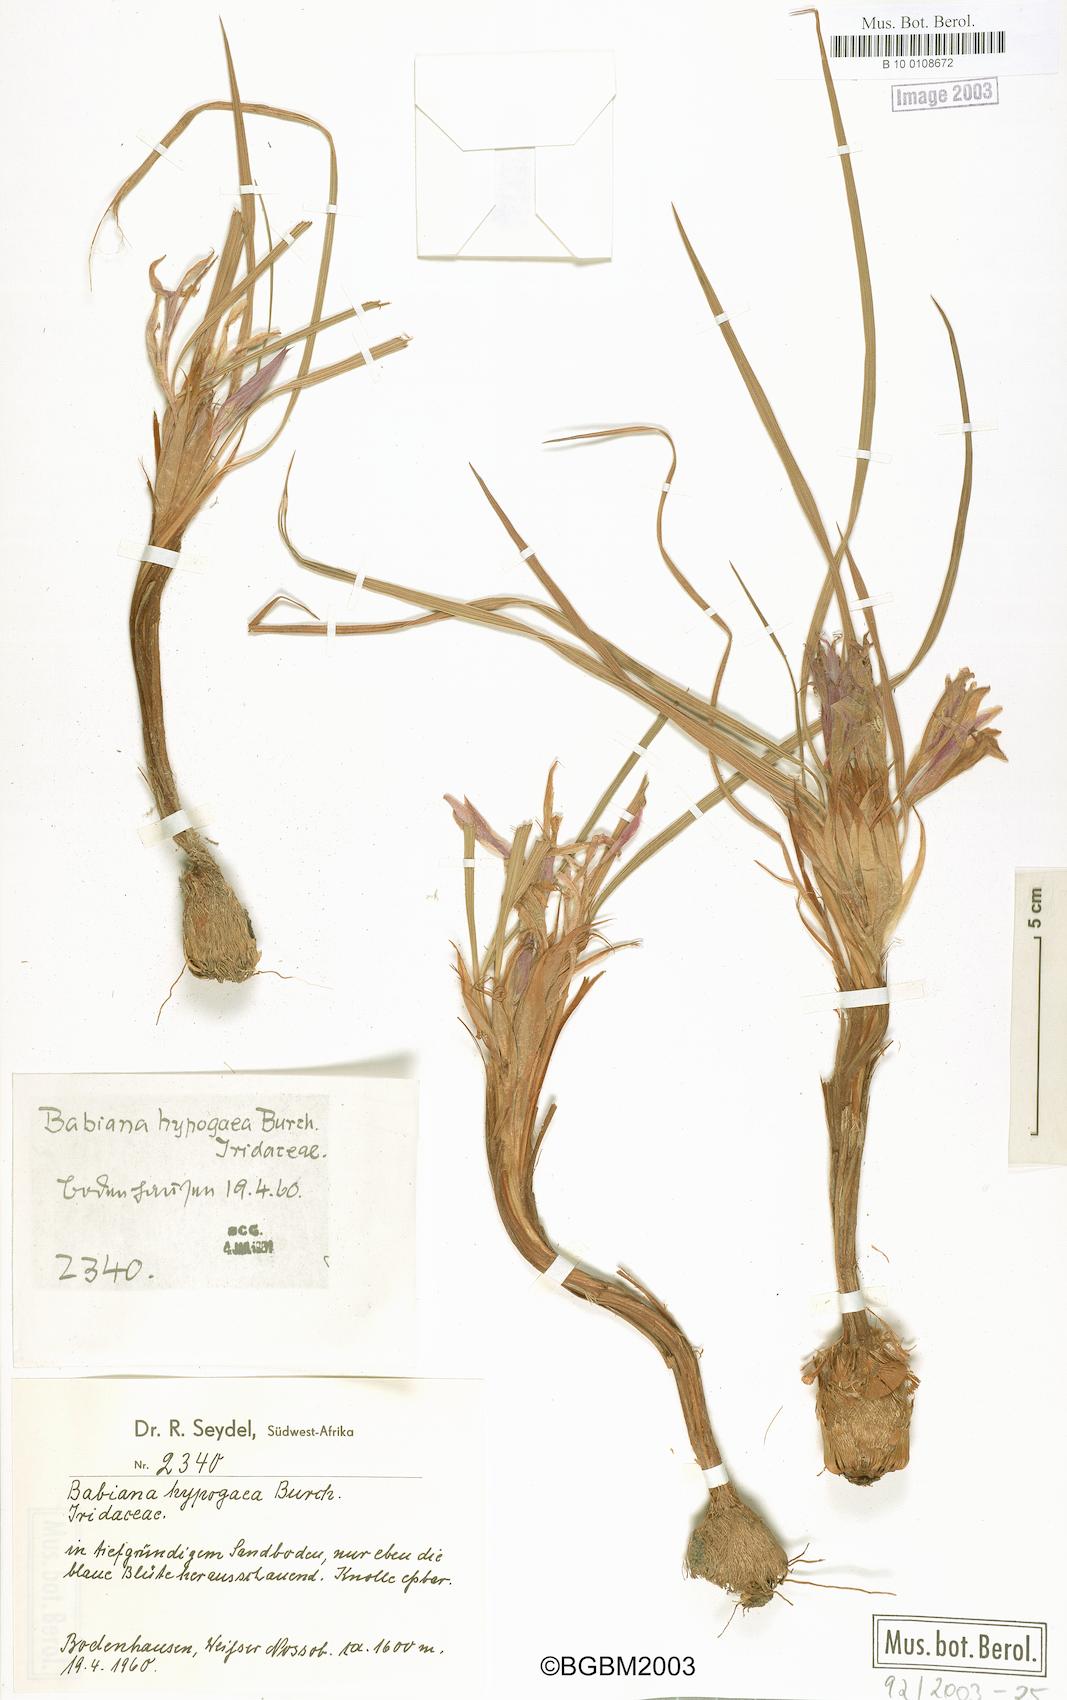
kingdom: Plantae
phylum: Tracheophyta
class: Liliopsida
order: Asparagales
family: Iridaceae
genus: Babiana
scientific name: Babiana hypogaea
